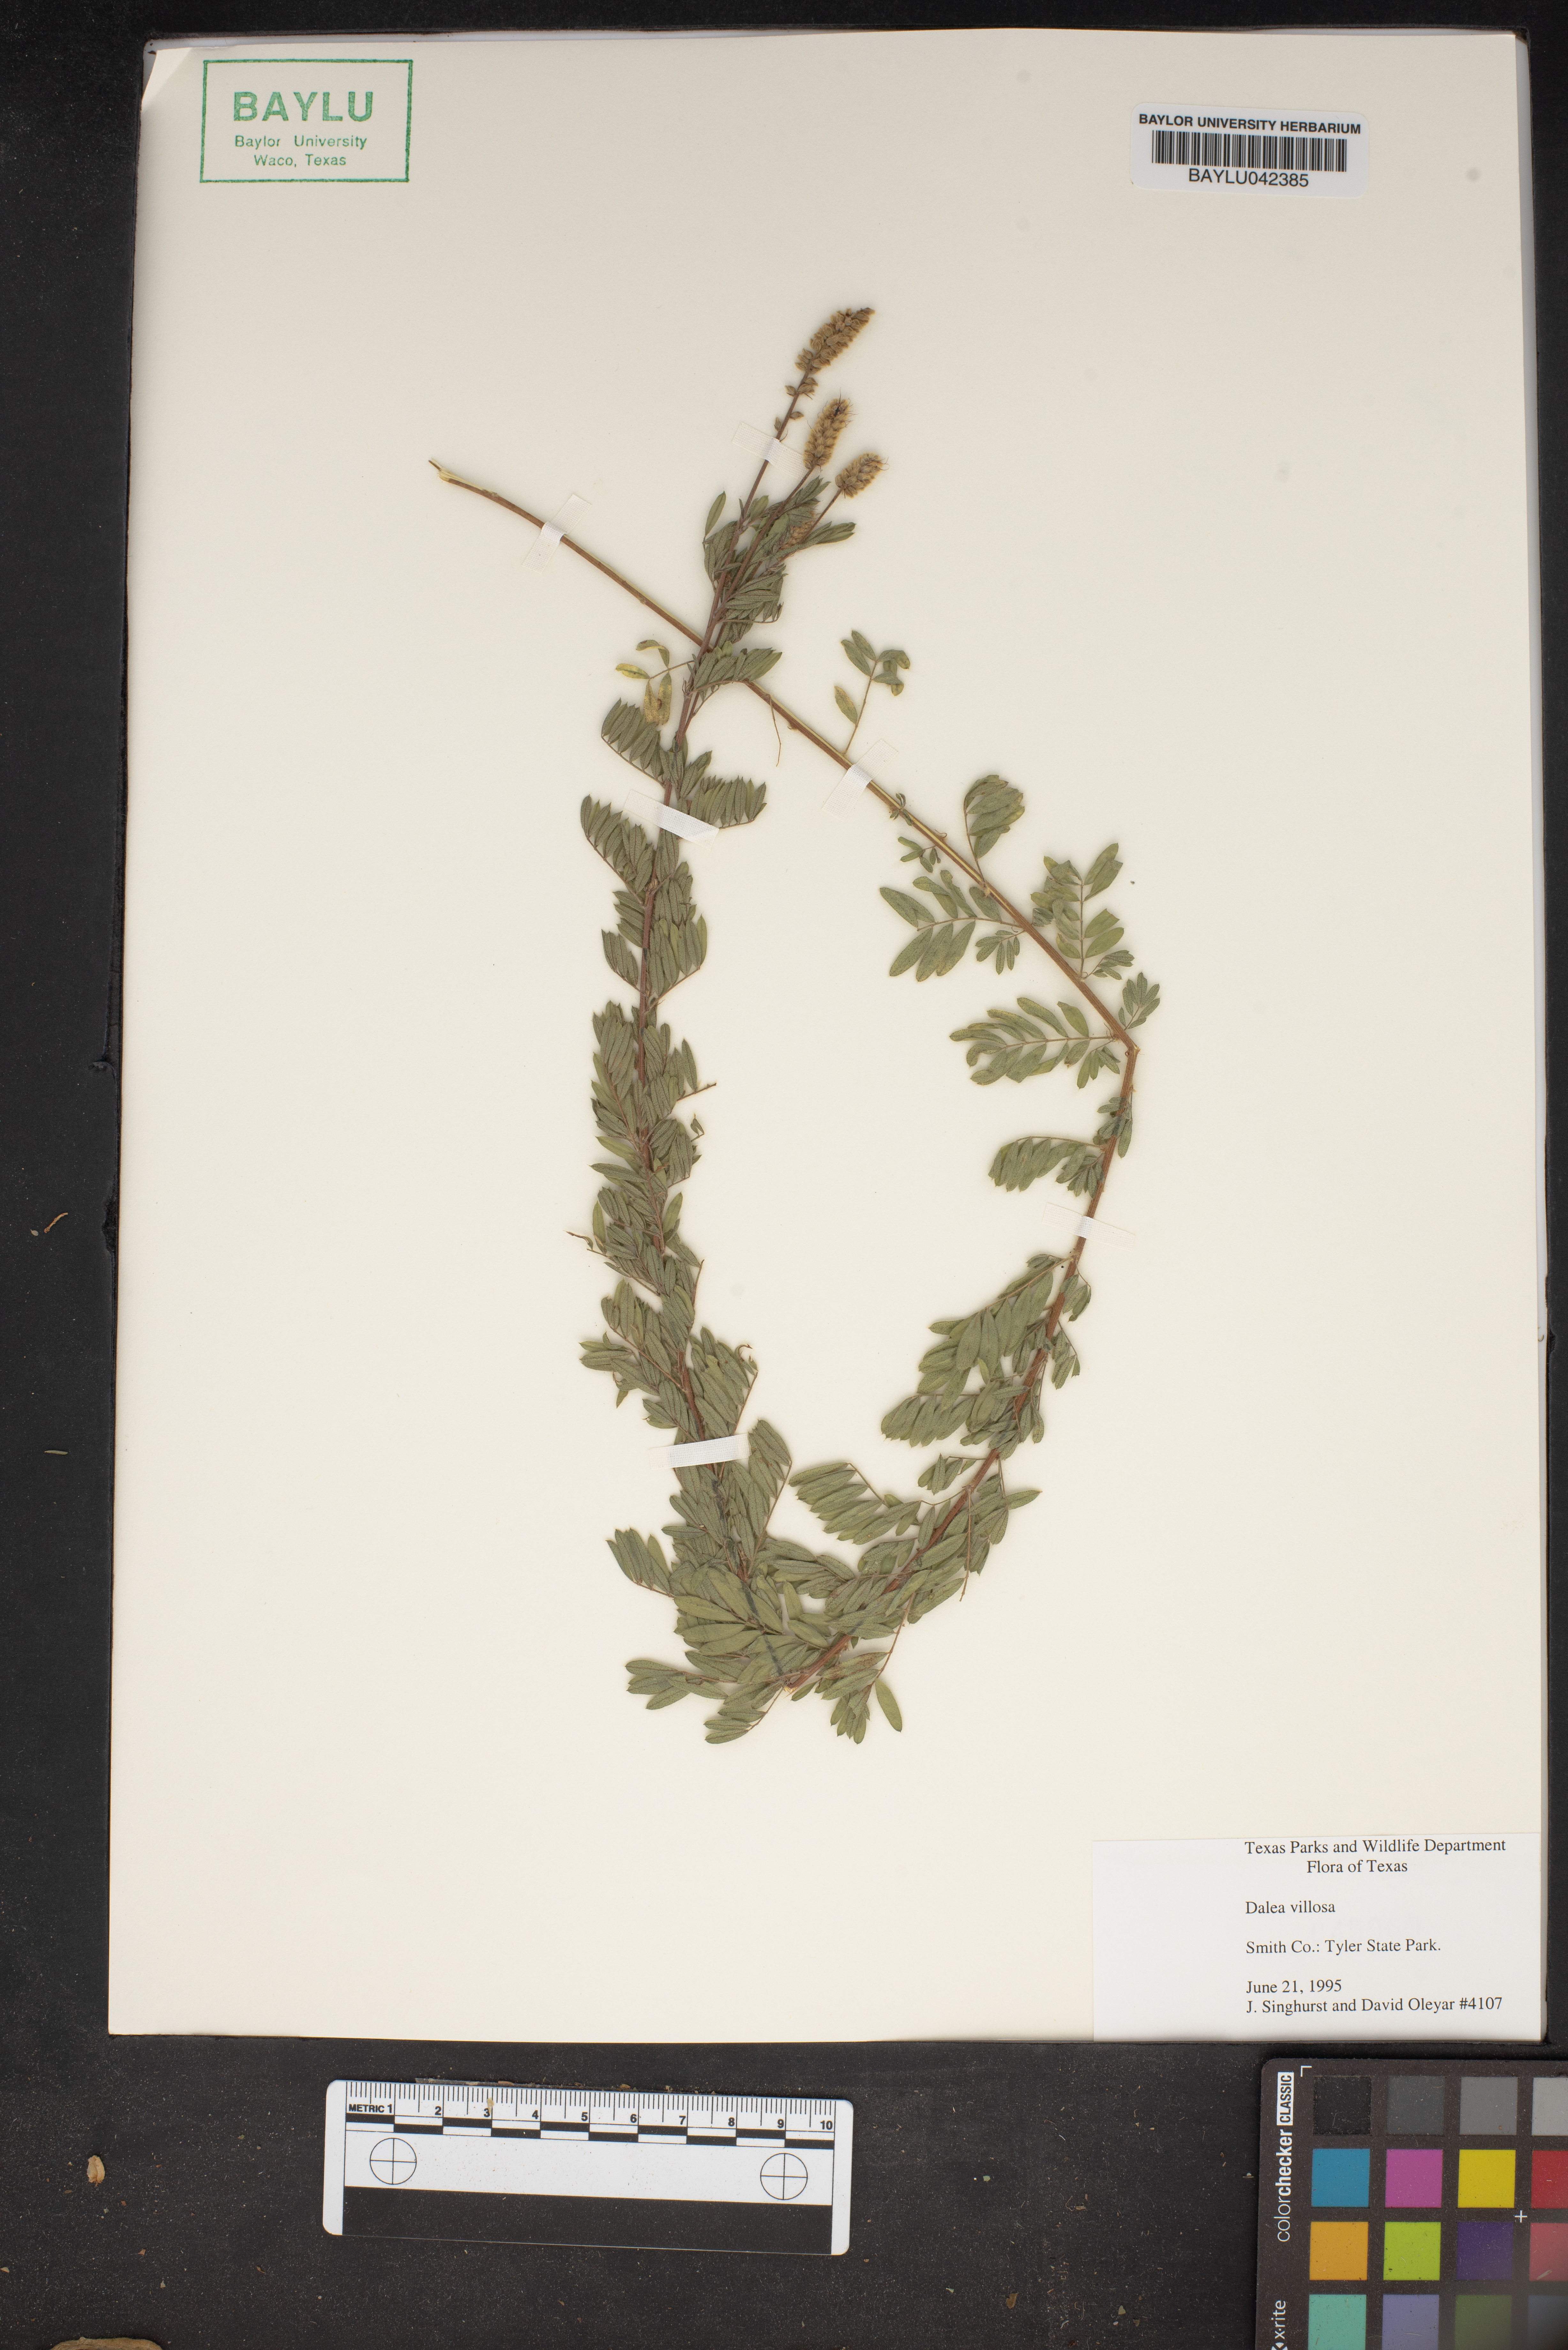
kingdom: Plantae
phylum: Tracheophyta
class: Magnoliopsida
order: Fabales
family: Fabaceae
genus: Dalea
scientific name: Dalea villosa
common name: Silky prairie-clover
